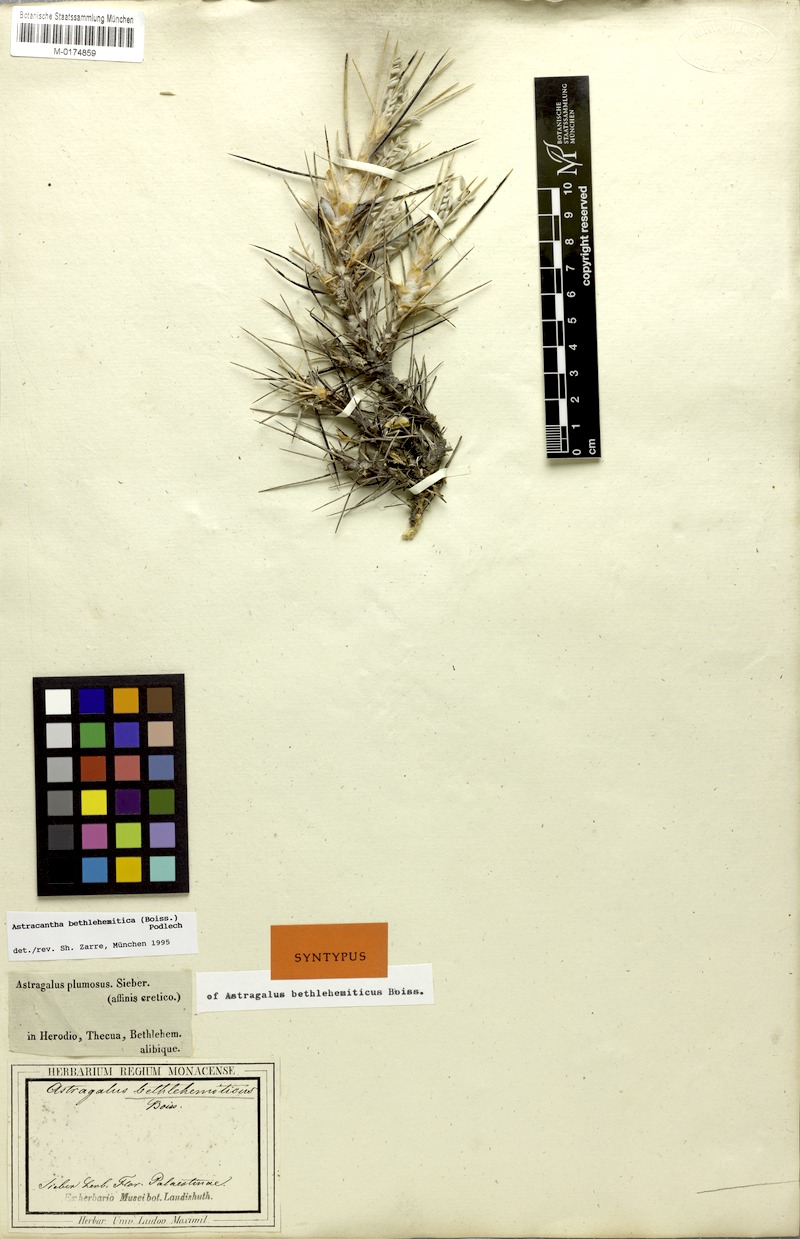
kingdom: Plantae
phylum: Tracheophyta
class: Magnoliopsida
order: Fabales
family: Fabaceae
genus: Astragalus
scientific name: Astragalus bethlehemiticus
